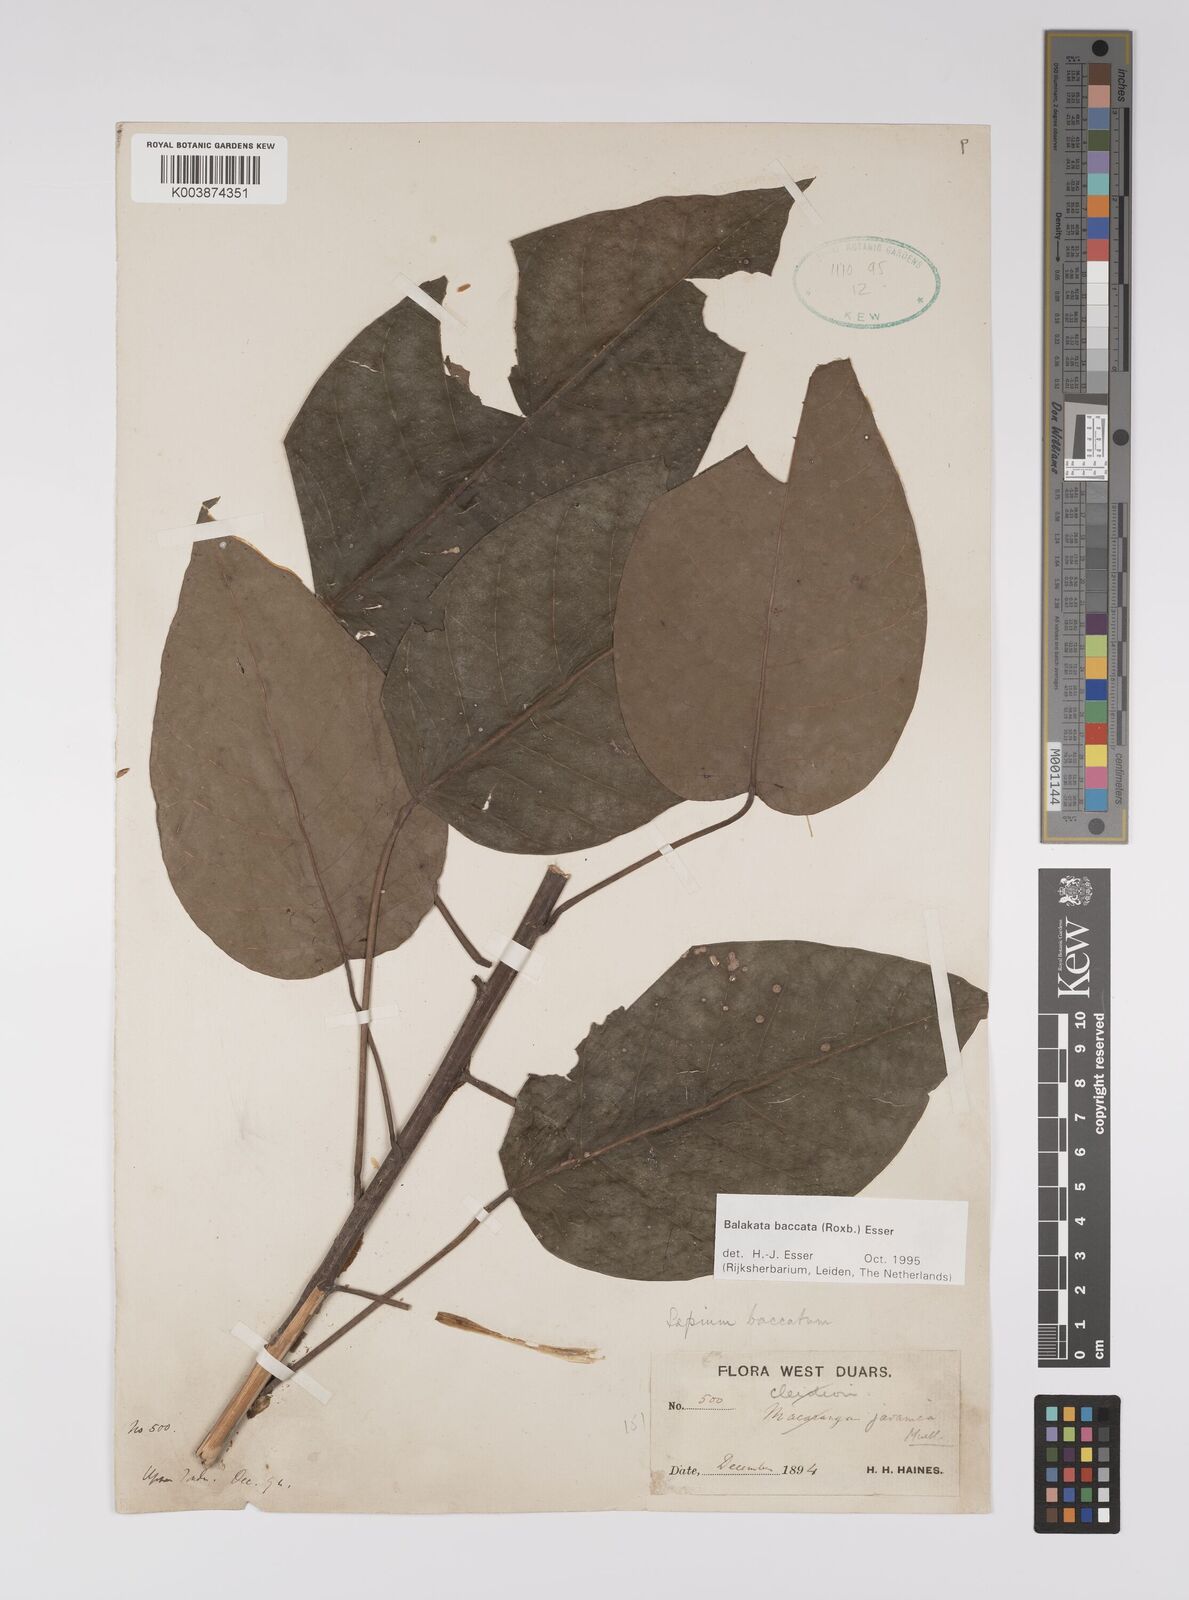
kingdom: Plantae
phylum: Tracheophyta
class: Magnoliopsida
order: Malpighiales
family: Euphorbiaceae
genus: Balakata
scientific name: Balakata baccata
